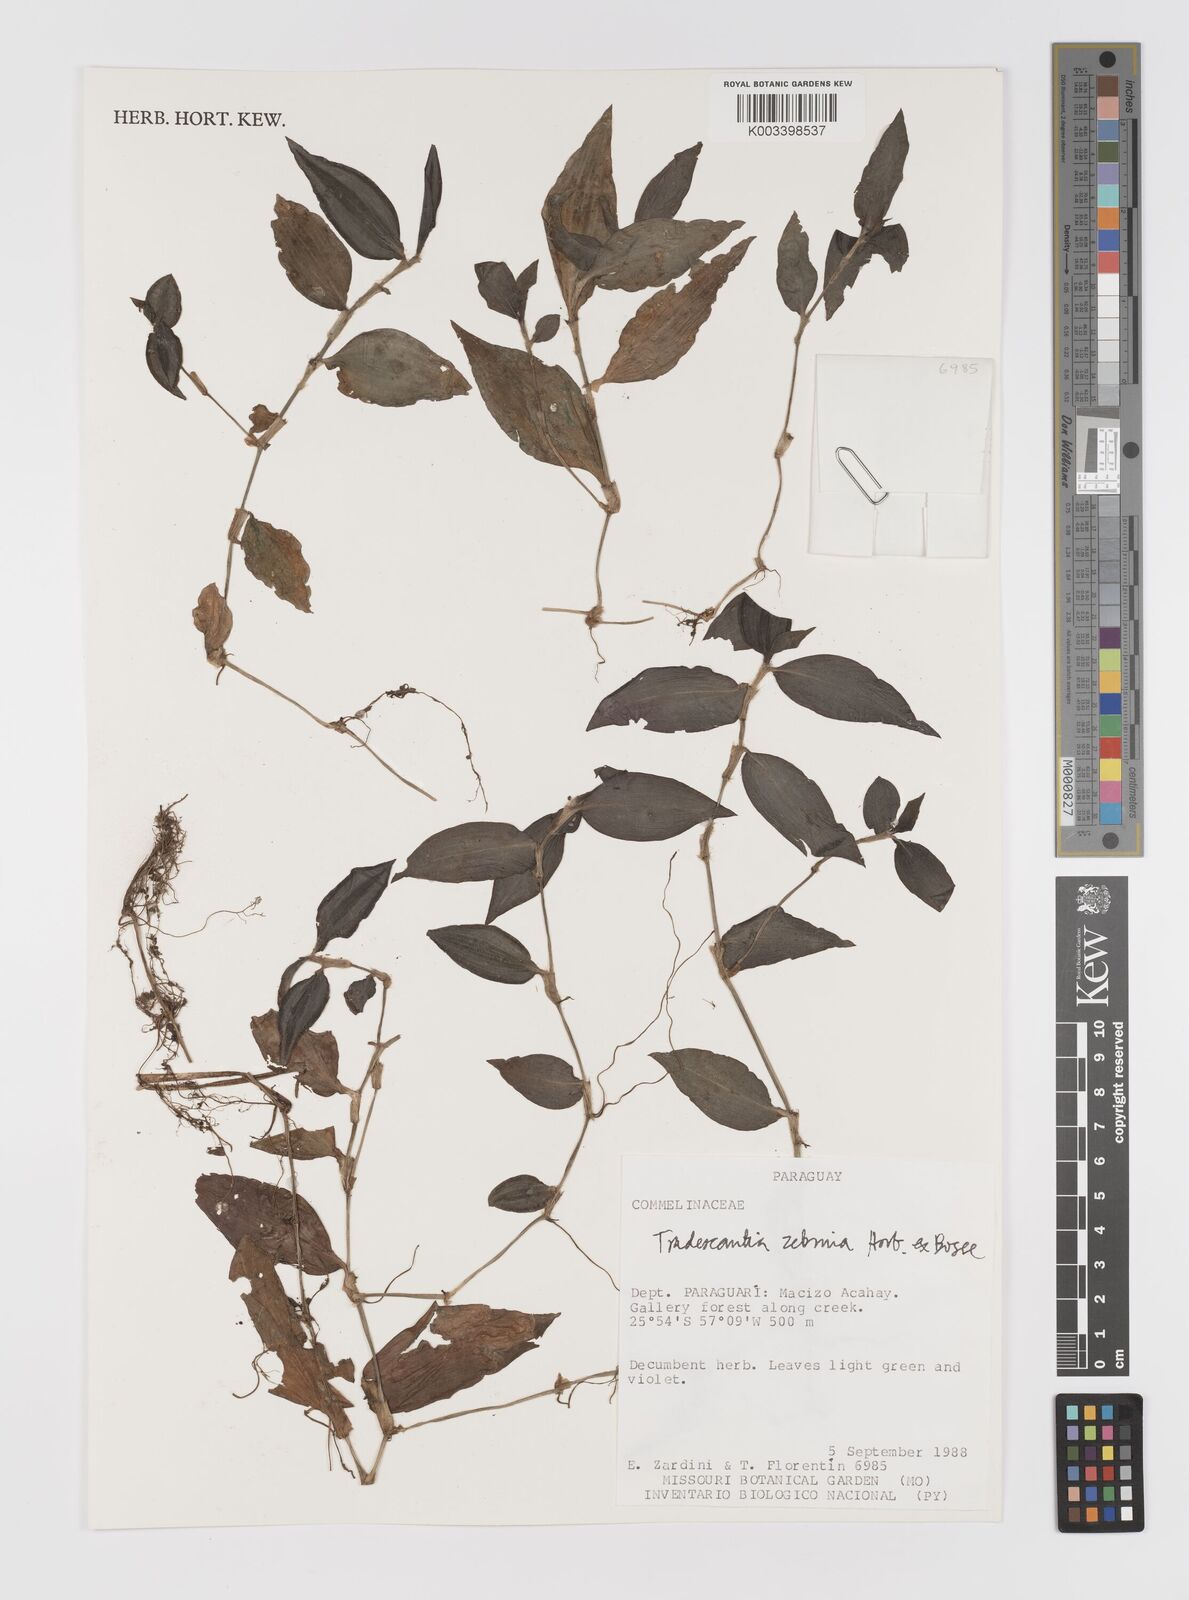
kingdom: Plantae
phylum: Tracheophyta
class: Liliopsida
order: Commelinales
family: Commelinaceae
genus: Tradescantia
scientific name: Tradescantia zebrina
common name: Inchplant
